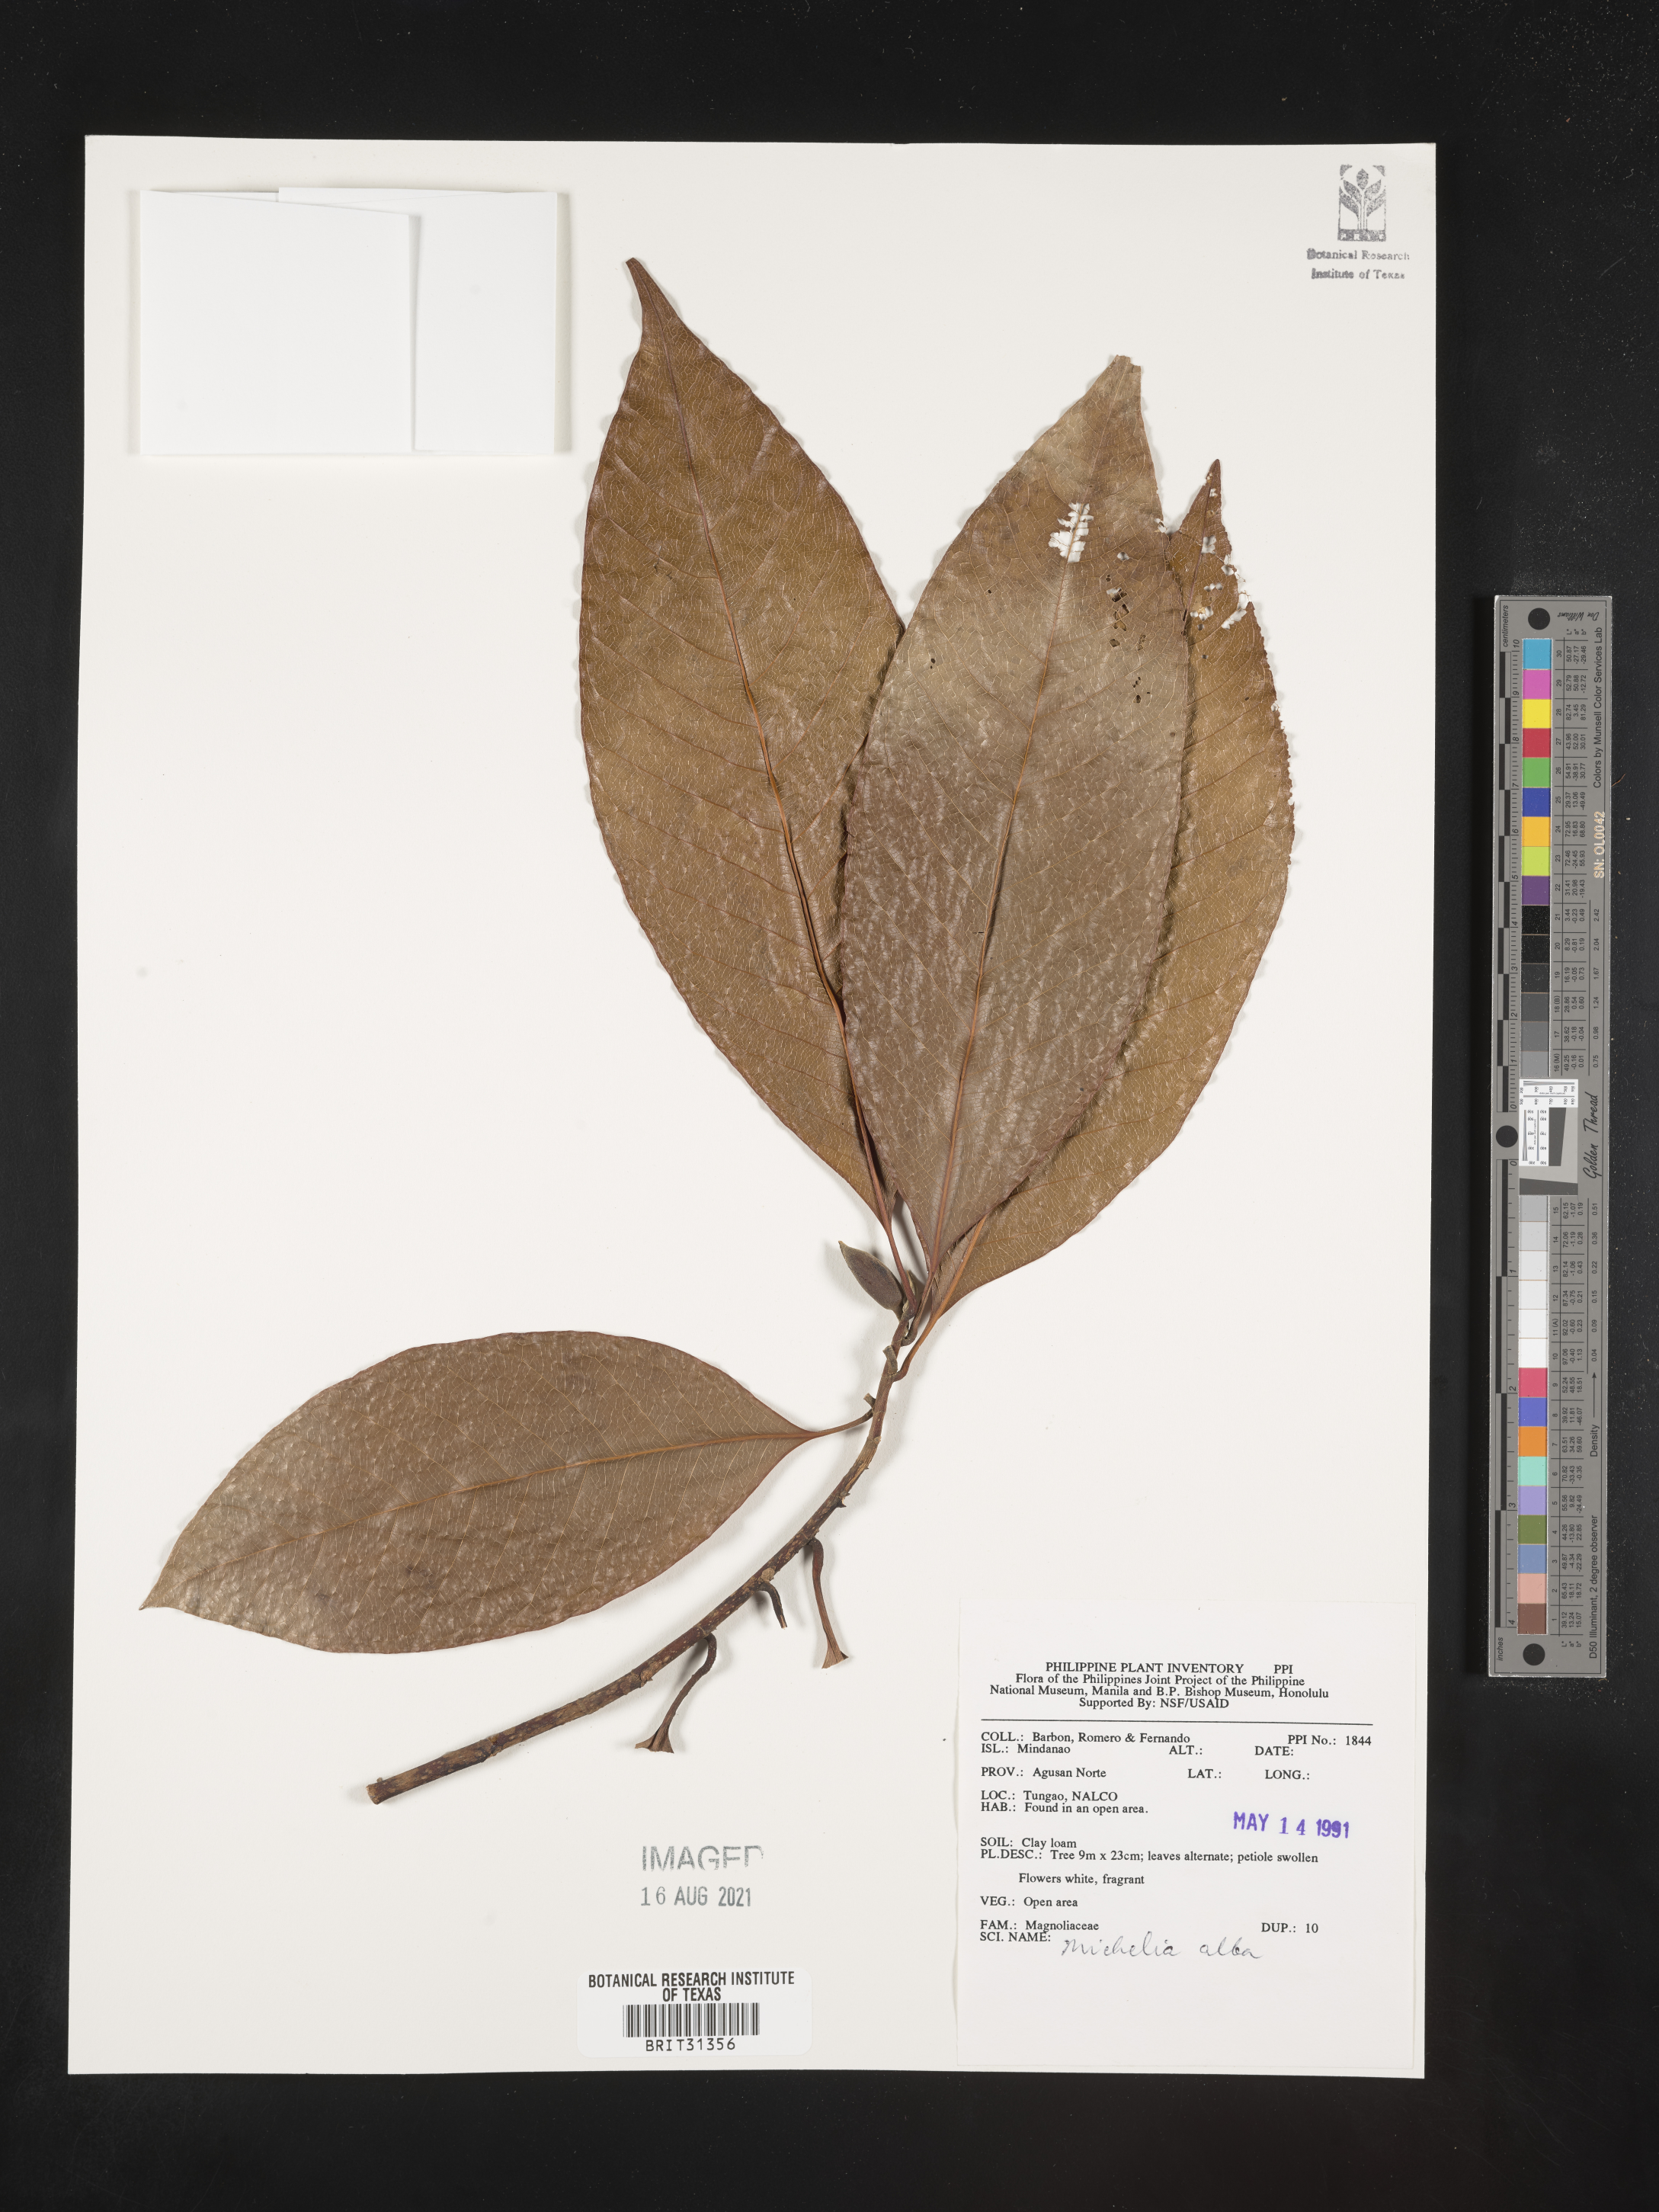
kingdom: Plantae
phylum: Tracheophyta
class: Magnoliopsida
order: Magnoliales
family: Magnoliaceae
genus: Magnolia
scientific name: Magnolia alba
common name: White champaca
